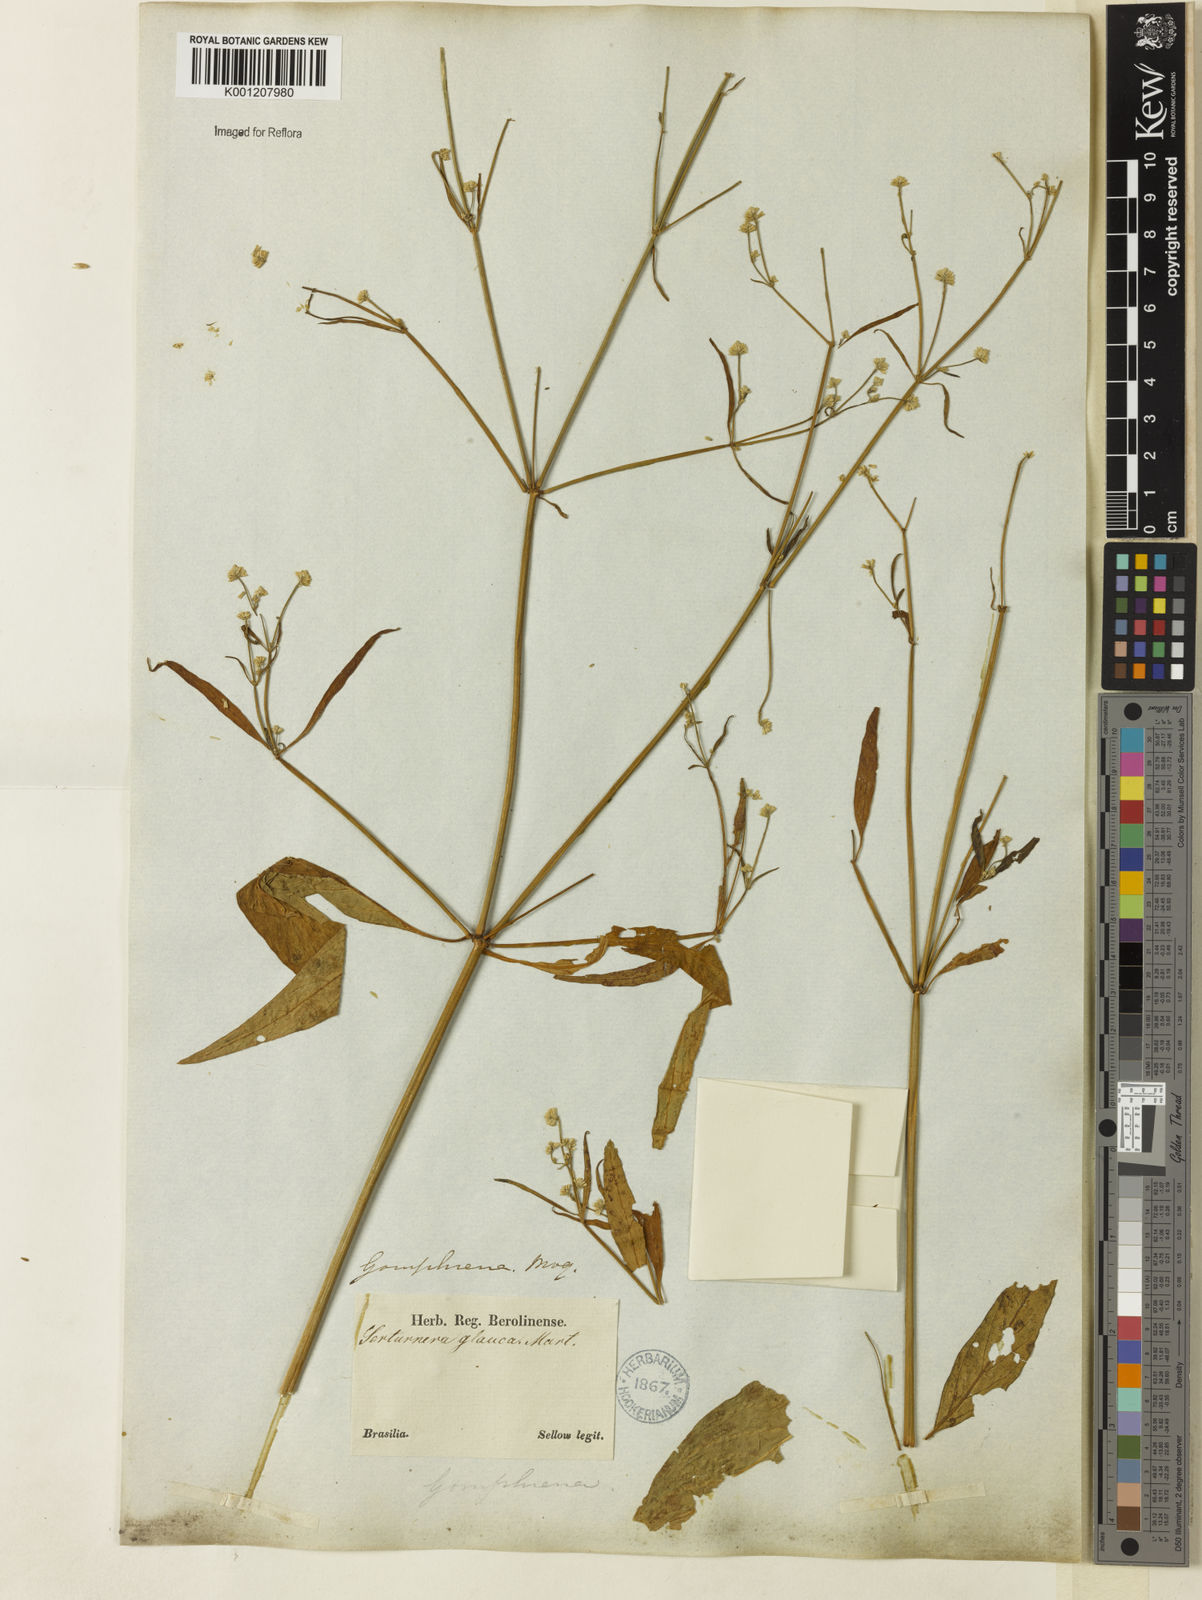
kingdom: Plantae
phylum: Tracheophyta
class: Magnoliopsida
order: Caryophyllales
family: Amaranthaceae
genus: Pfaffia
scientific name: Pfaffia
